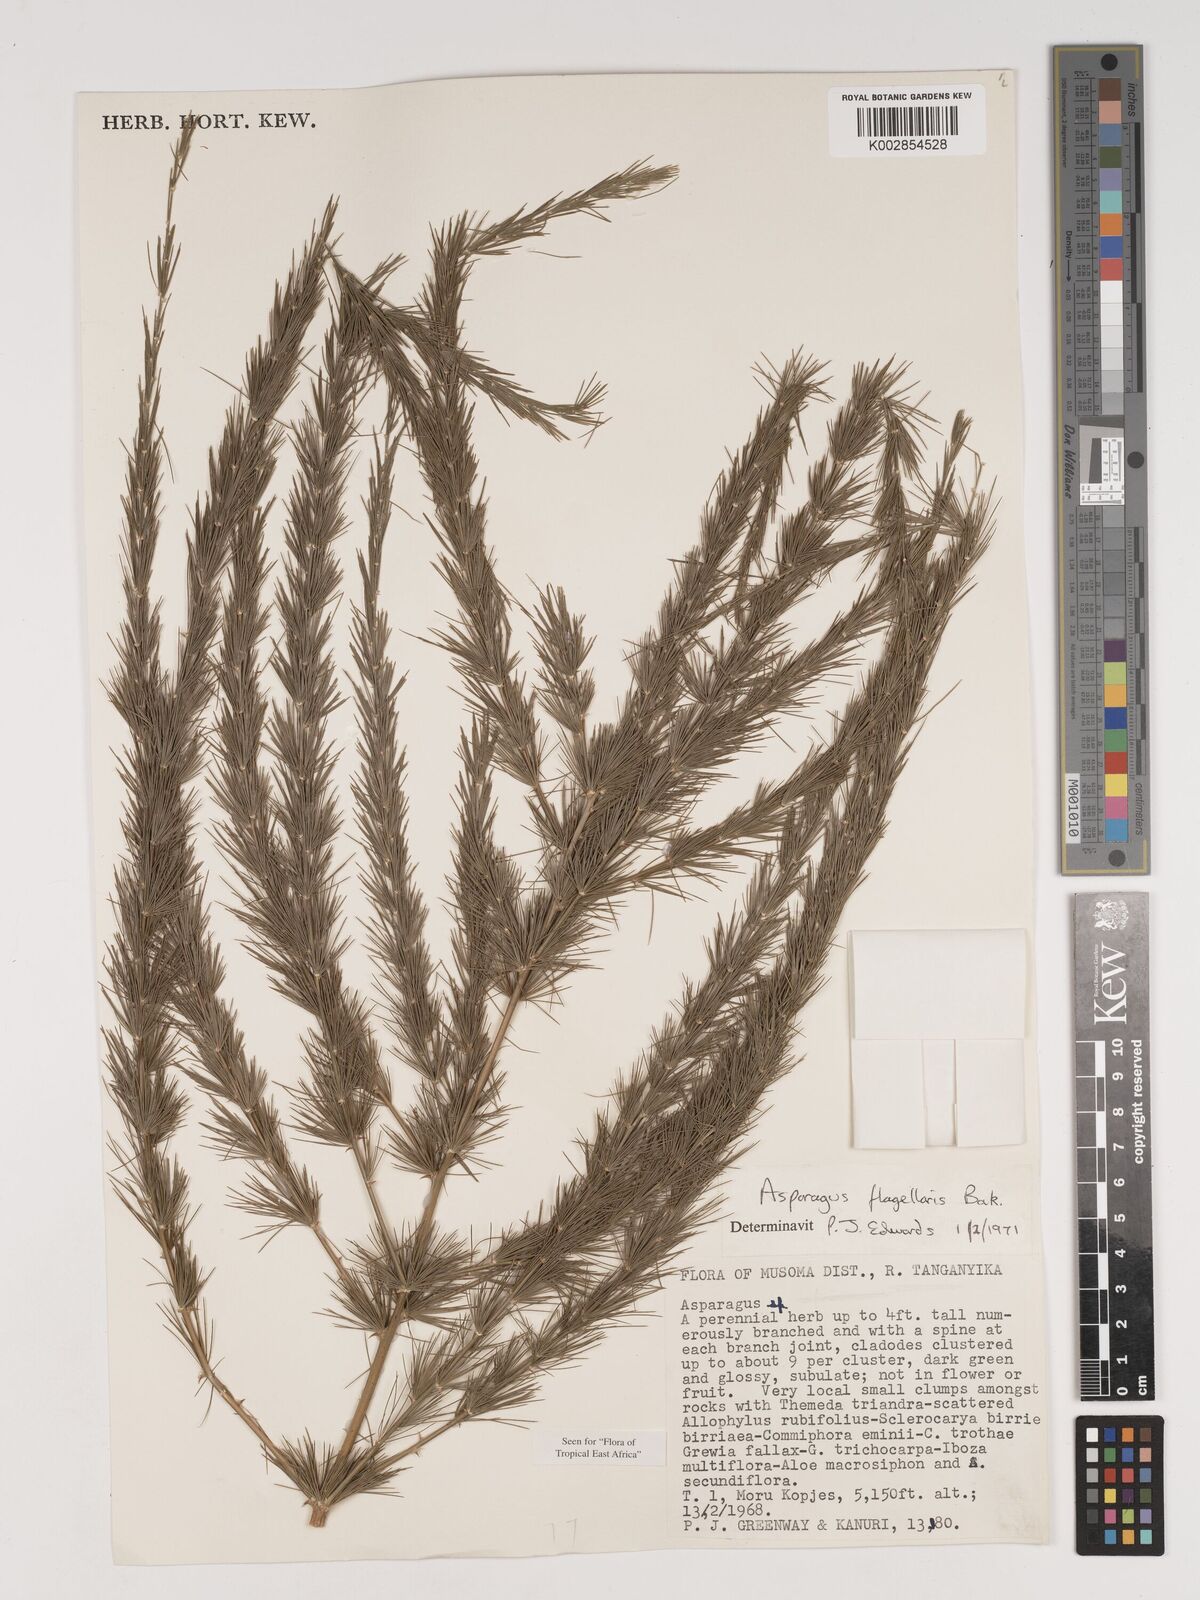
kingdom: Plantae
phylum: Tracheophyta
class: Liliopsida
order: Asparagales
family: Asparagaceae
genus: Asparagus
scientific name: Asparagus flagellaris
